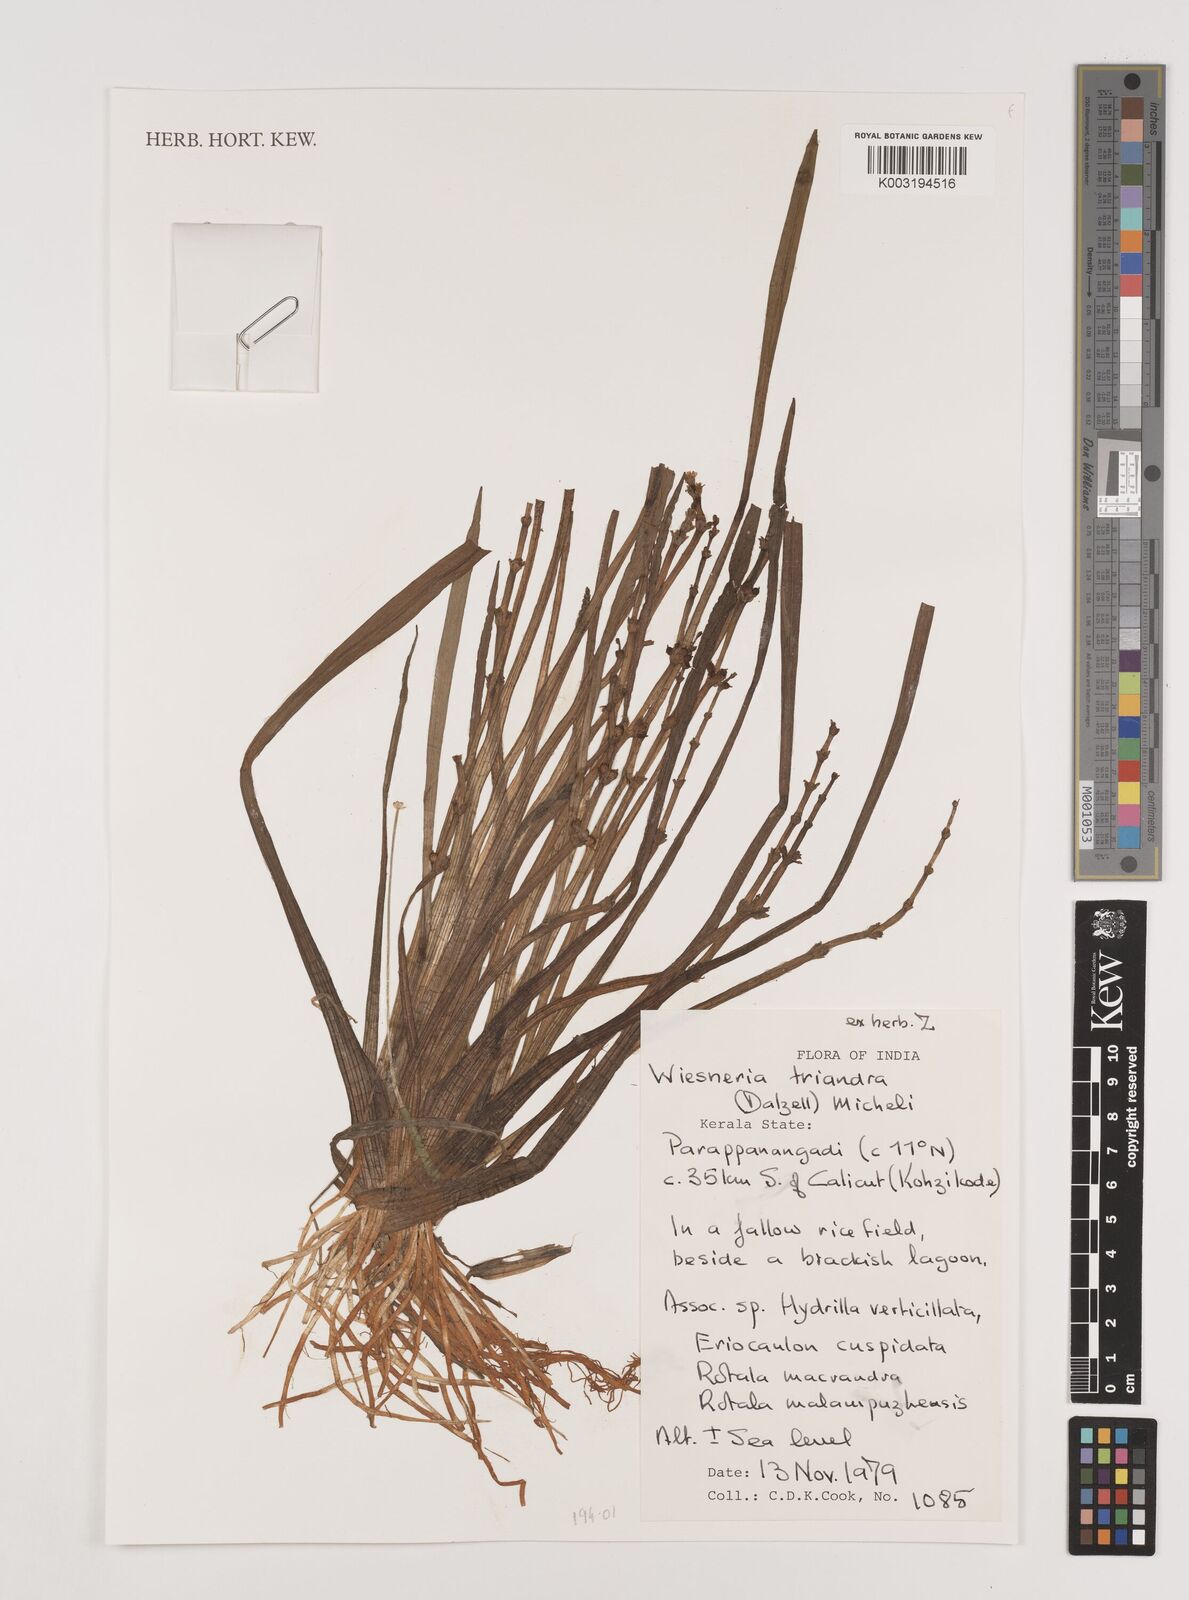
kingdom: Plantae
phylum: Tracheophyta
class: Liliopsida
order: Alismatales
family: Alismataceae
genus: Wiesneria
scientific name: Wiesneria triandra
